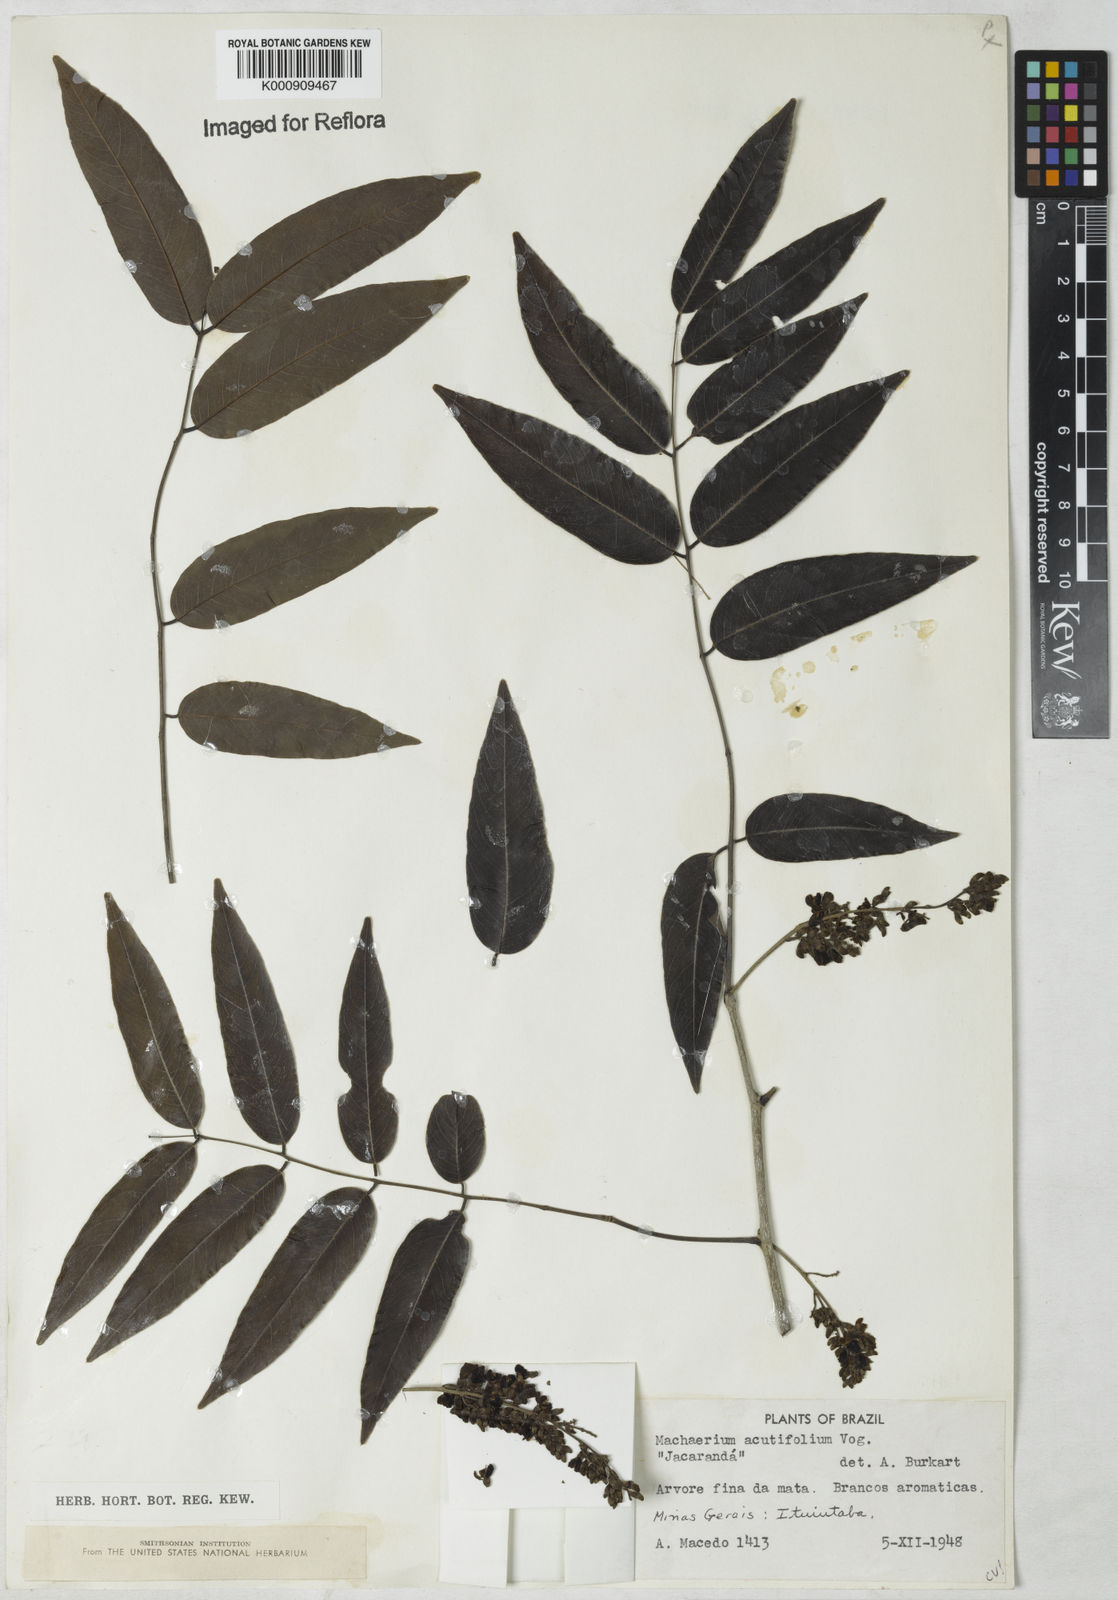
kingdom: Plantae
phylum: Tracheophyta
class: Magnoliopsida
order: Fabales
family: Fabaceae
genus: Machaerium
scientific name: Machaerium acutifolium
